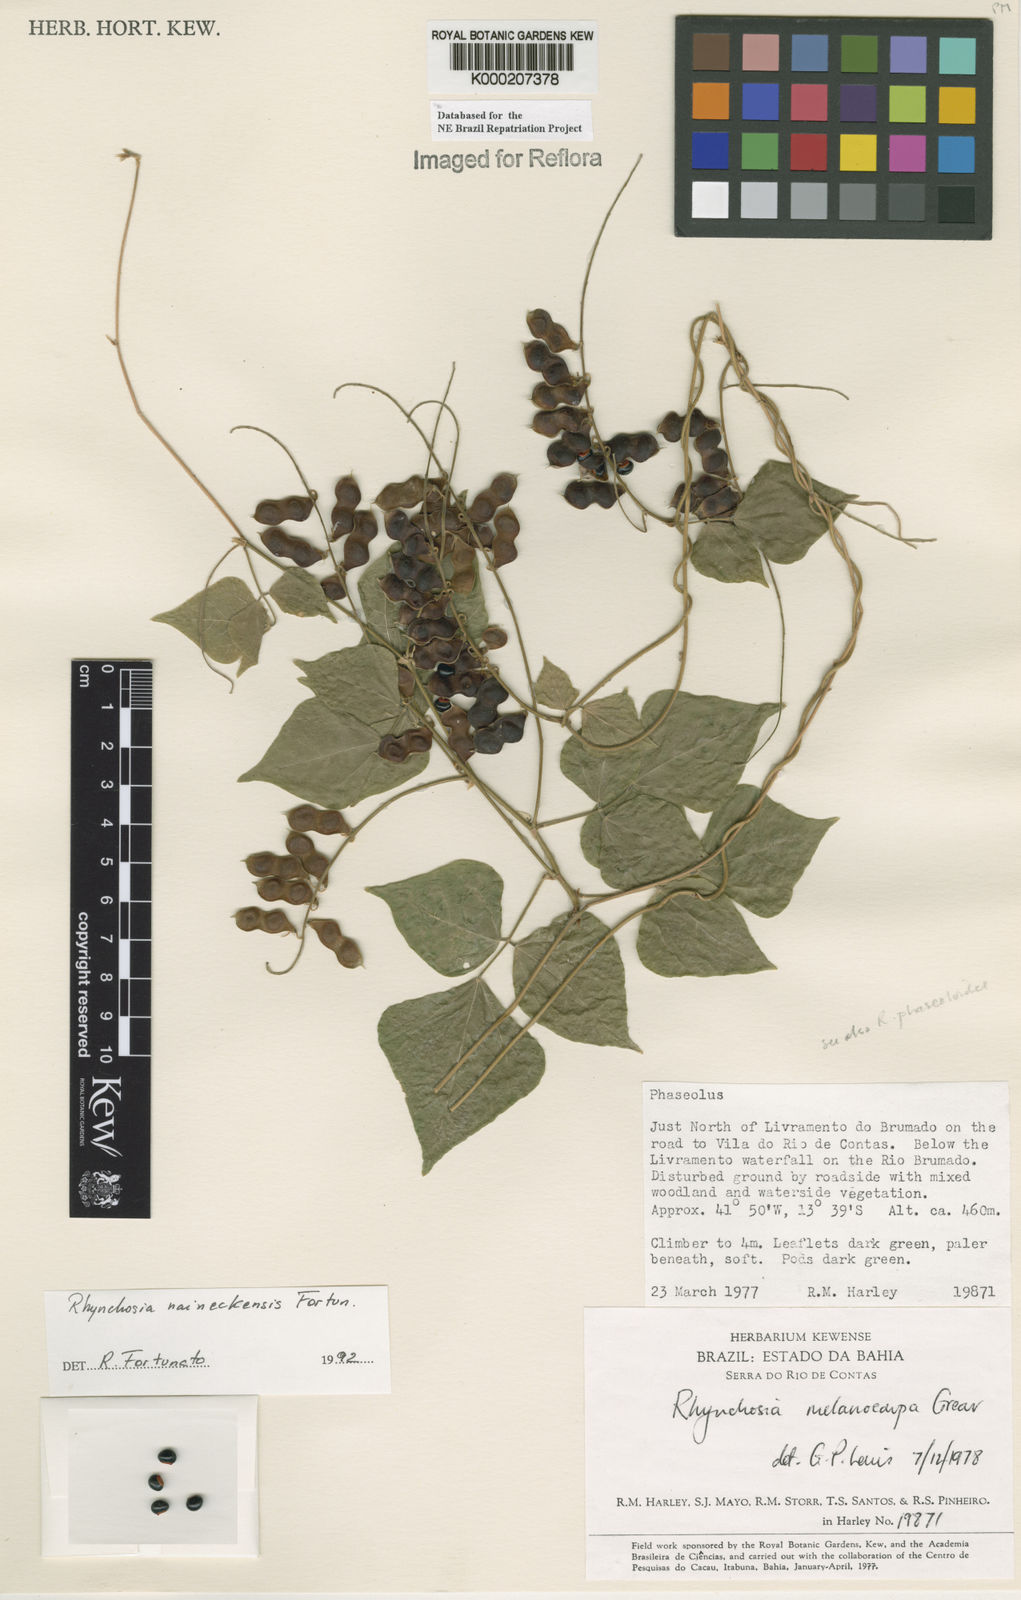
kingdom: Plantae
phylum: Tracheophyta
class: Magnoliopsida
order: Fabales
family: Fabaceae
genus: Rhynchosia
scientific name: Rhynchosia naineckensis
